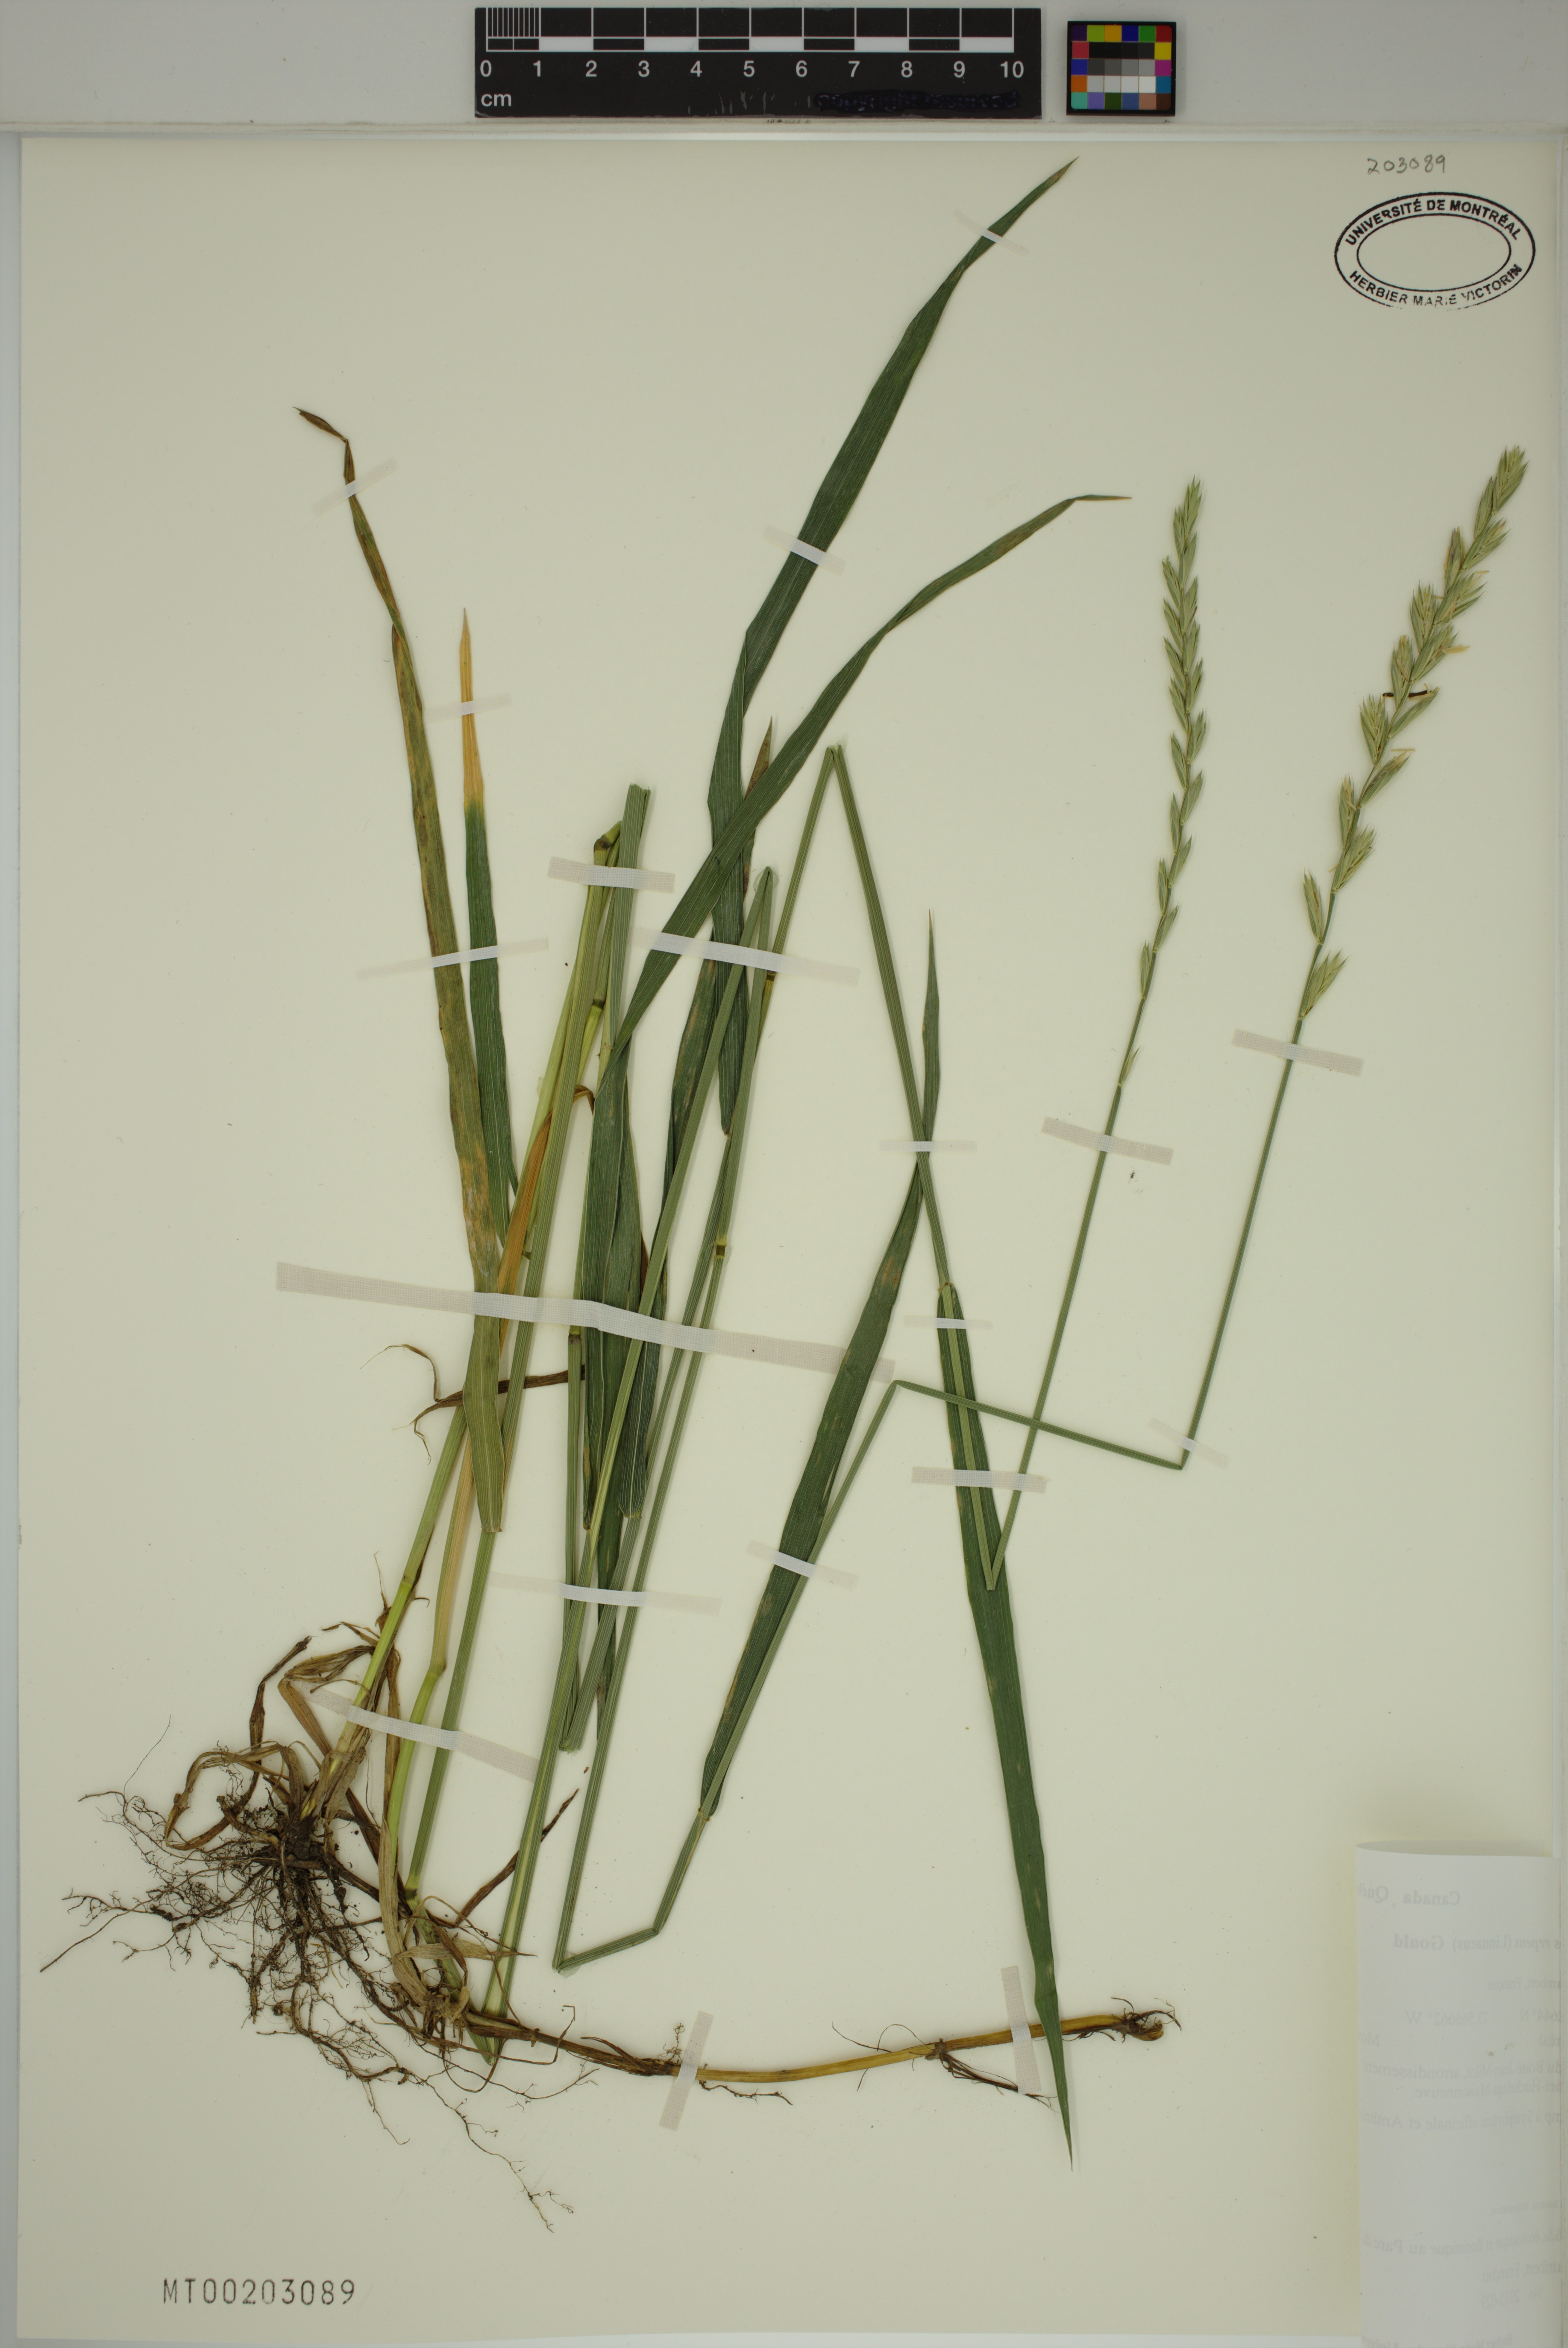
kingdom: Plantae
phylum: Tracheophyta
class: Liliopsida
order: Poales
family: Poaceae
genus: Elymus
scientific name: Elymus repens
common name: Quackgrass
